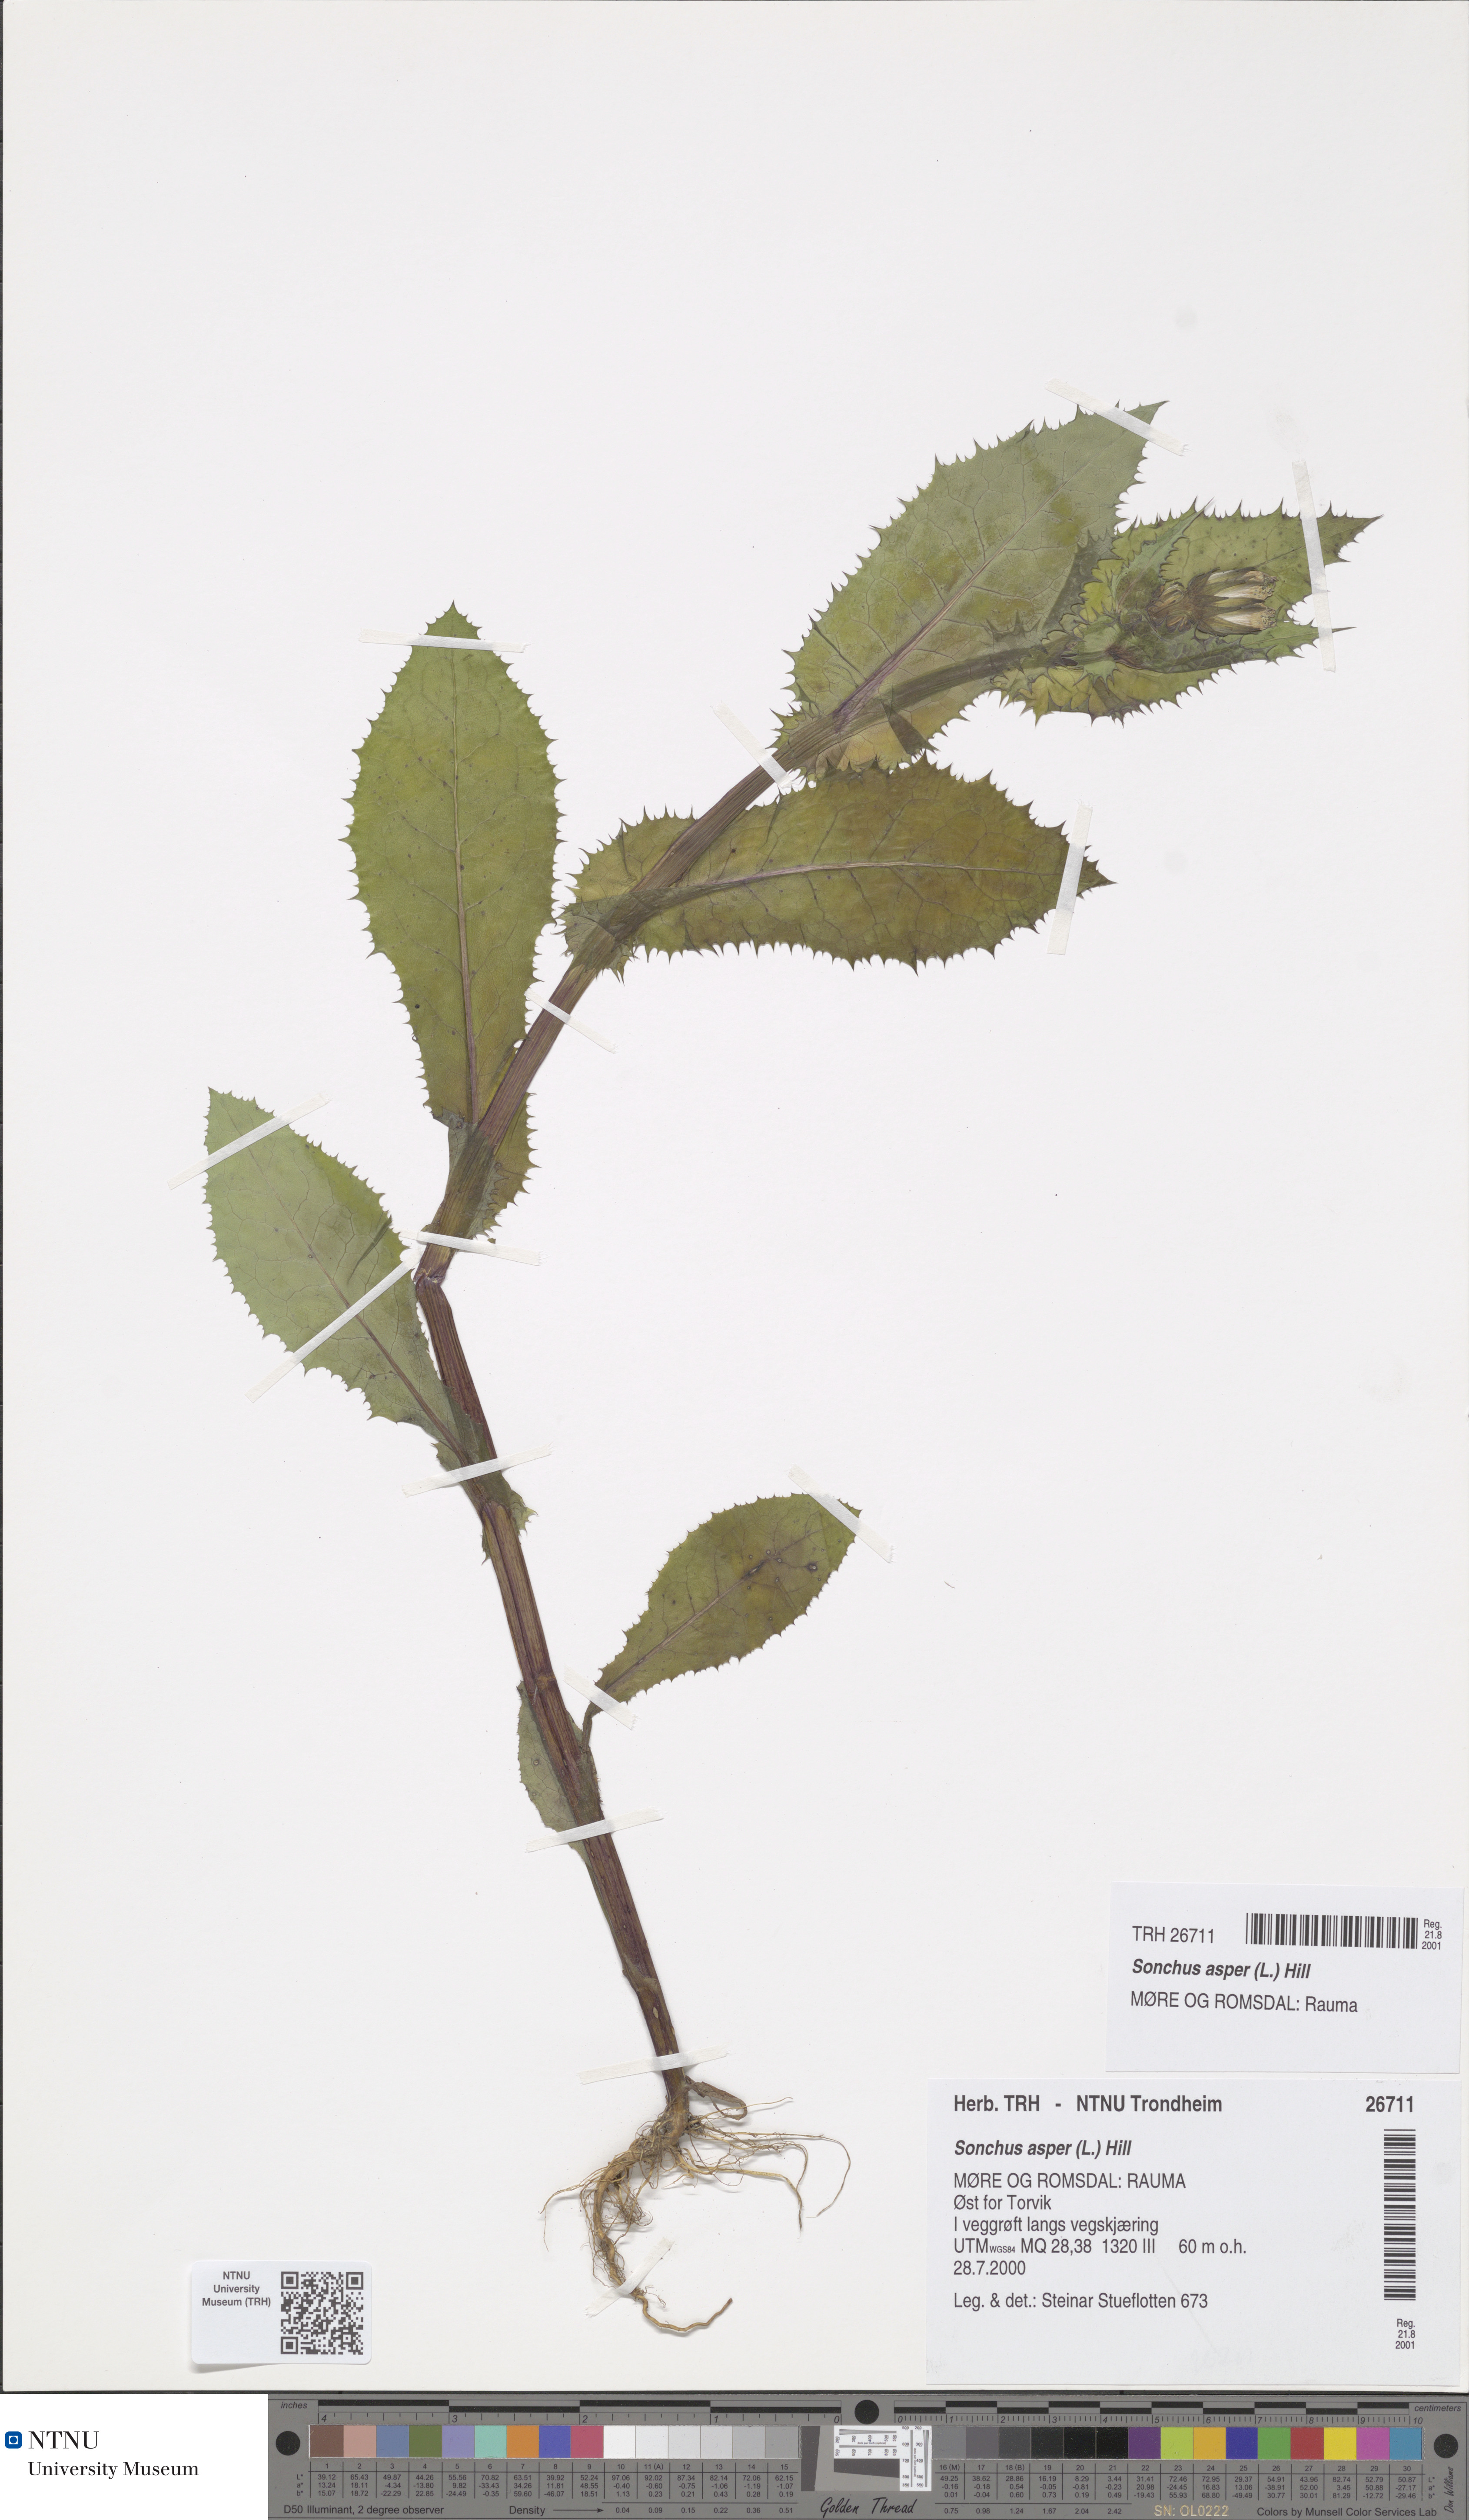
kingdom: Plantae
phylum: Tracheophyta
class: Magnoliopsida
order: Asterales
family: Asteraceae
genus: Sonchus
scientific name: Sonchus asper
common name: Prickly sow-thistle
